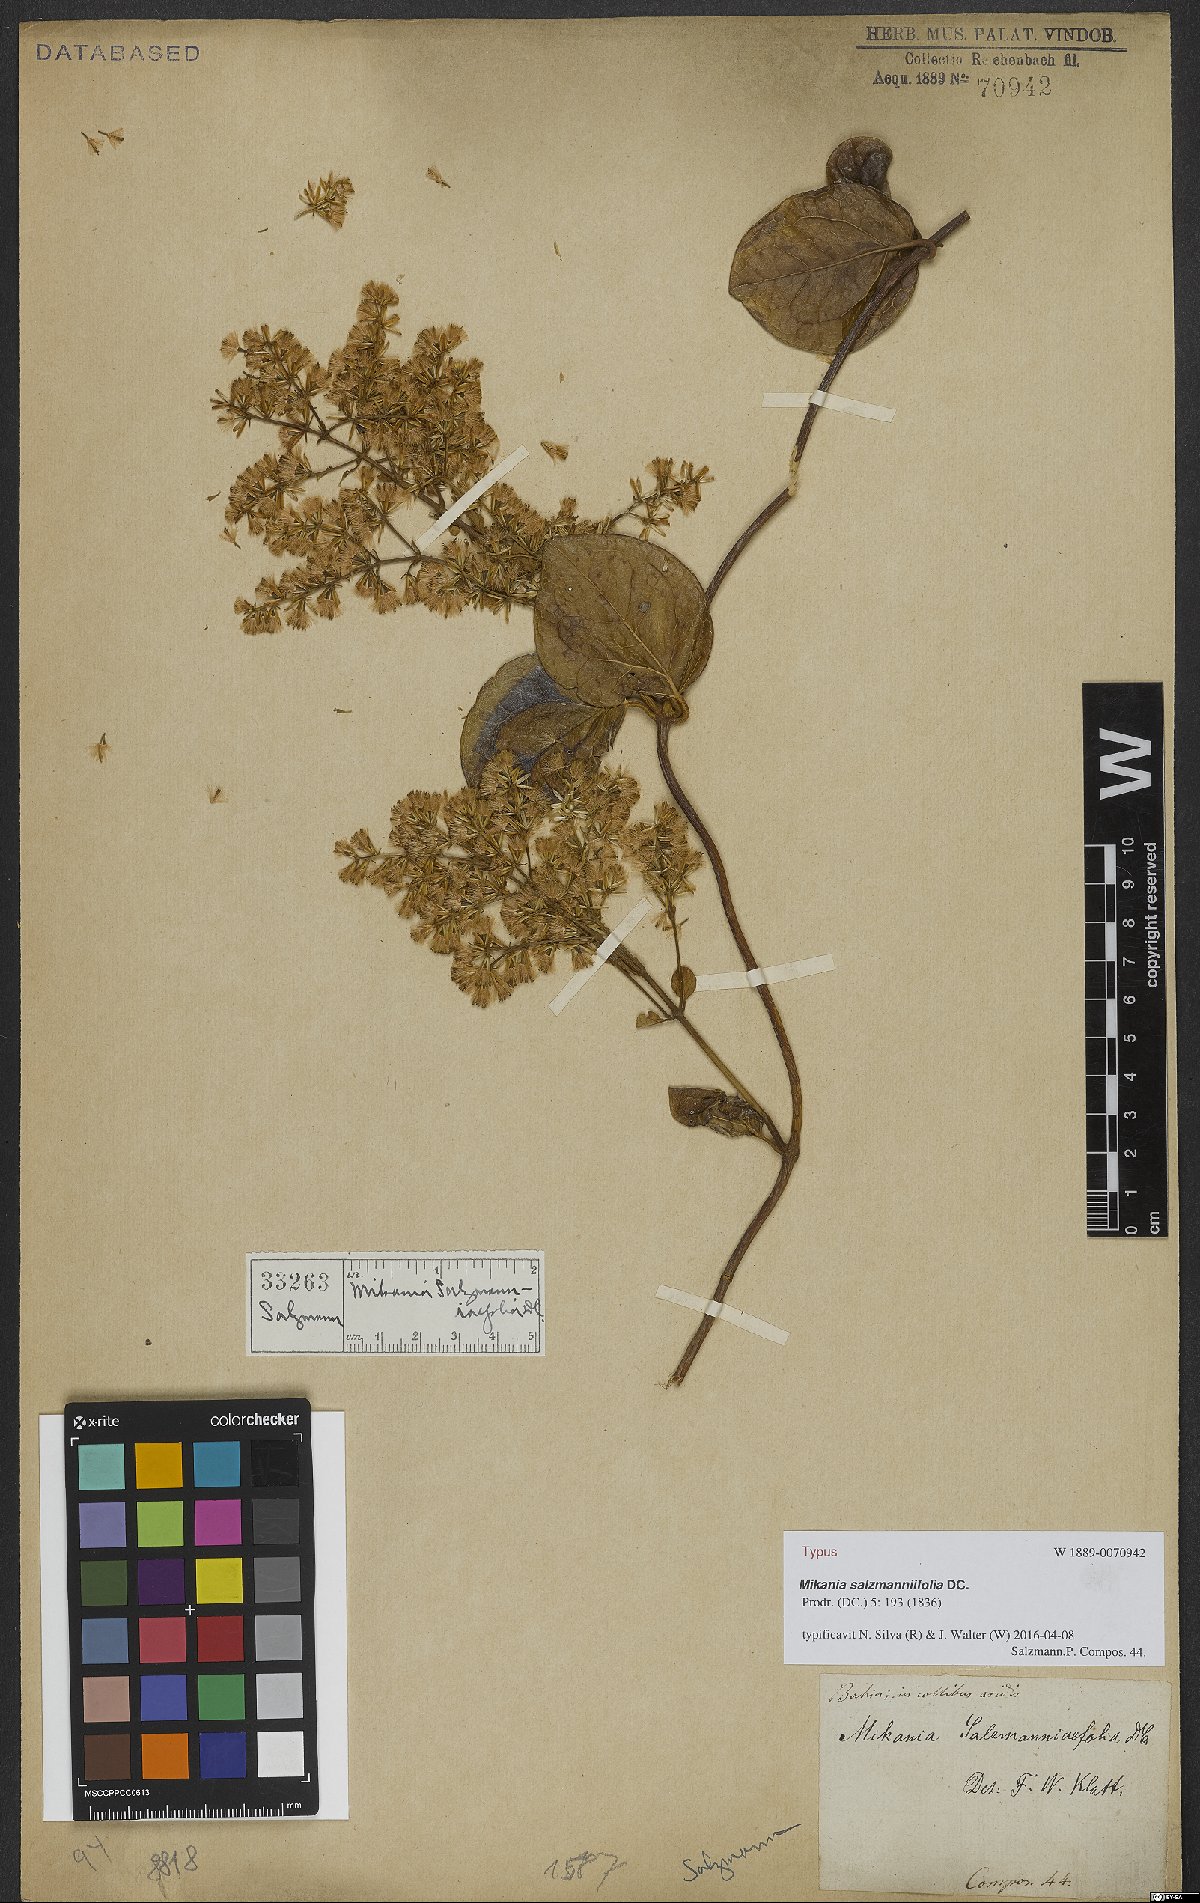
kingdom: Plantae
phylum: Tracheophyta
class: Magnoliopsida
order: Asterales
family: Asteraceae
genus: Mikania
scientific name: Mikania salzmanniifolia
